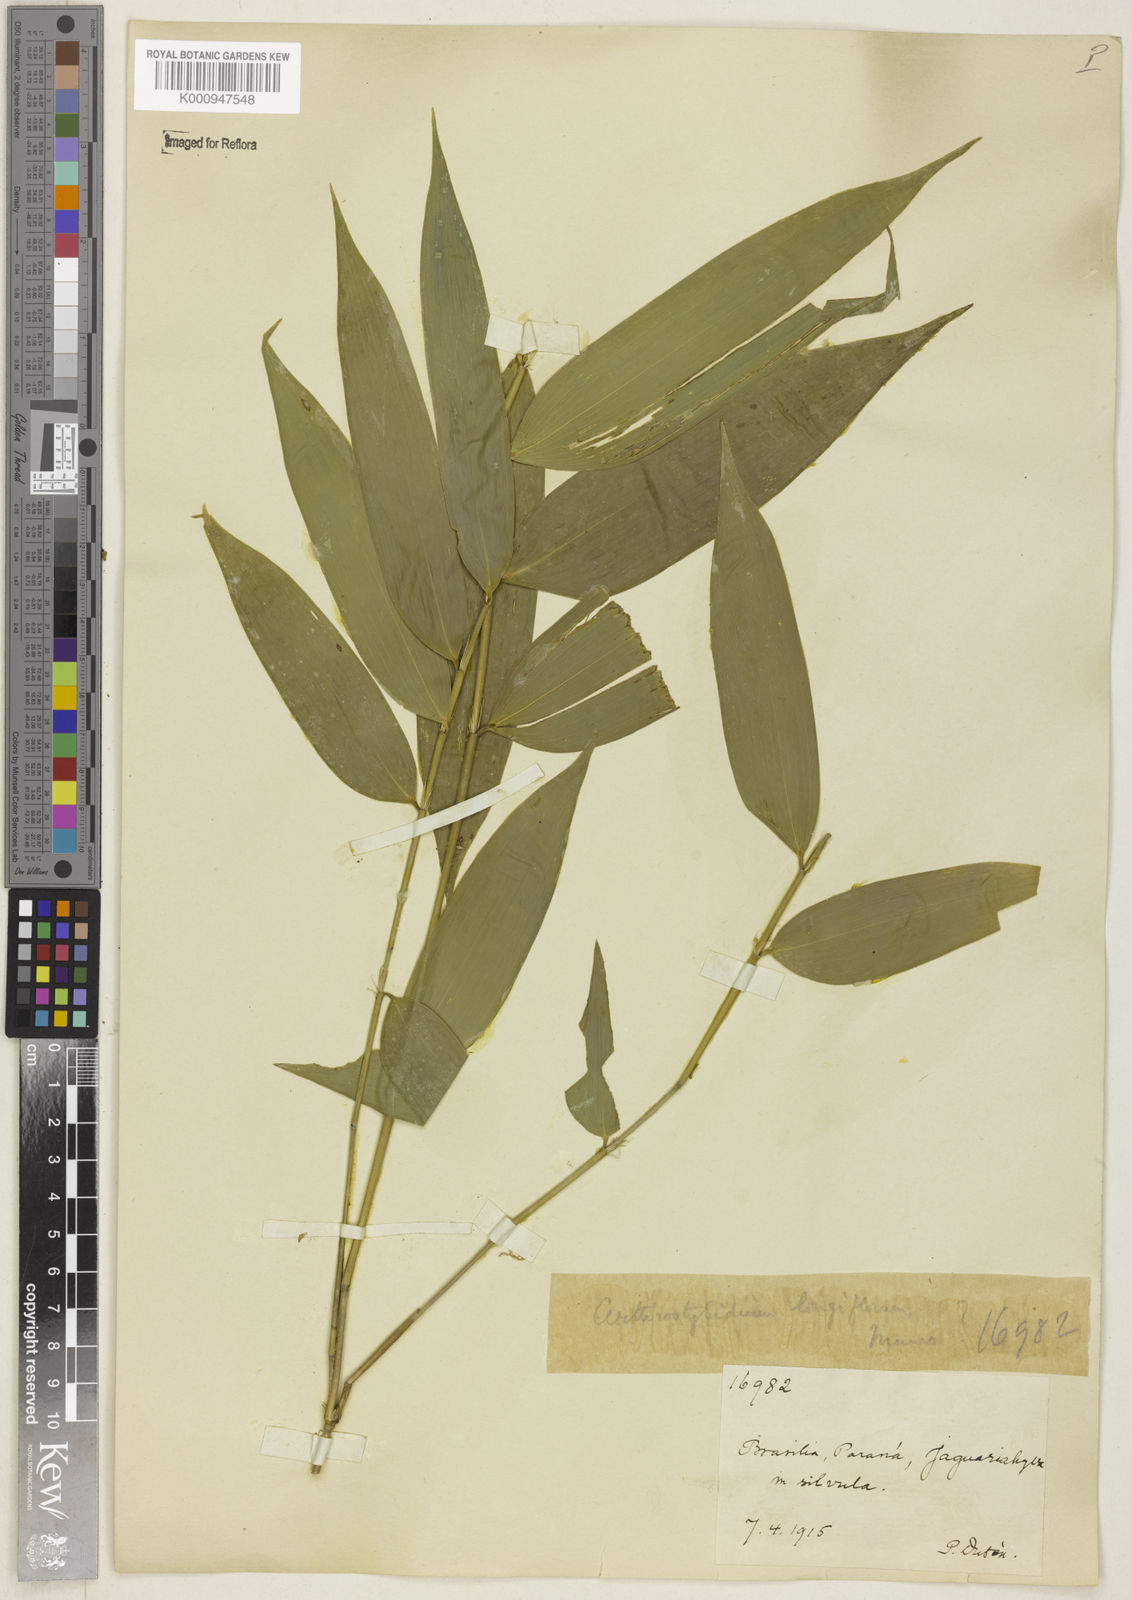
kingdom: Plantae
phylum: Tracheophyta
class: Liliopsida
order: Poales
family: Poaceae
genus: Aulonemia
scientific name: Aulonemia
